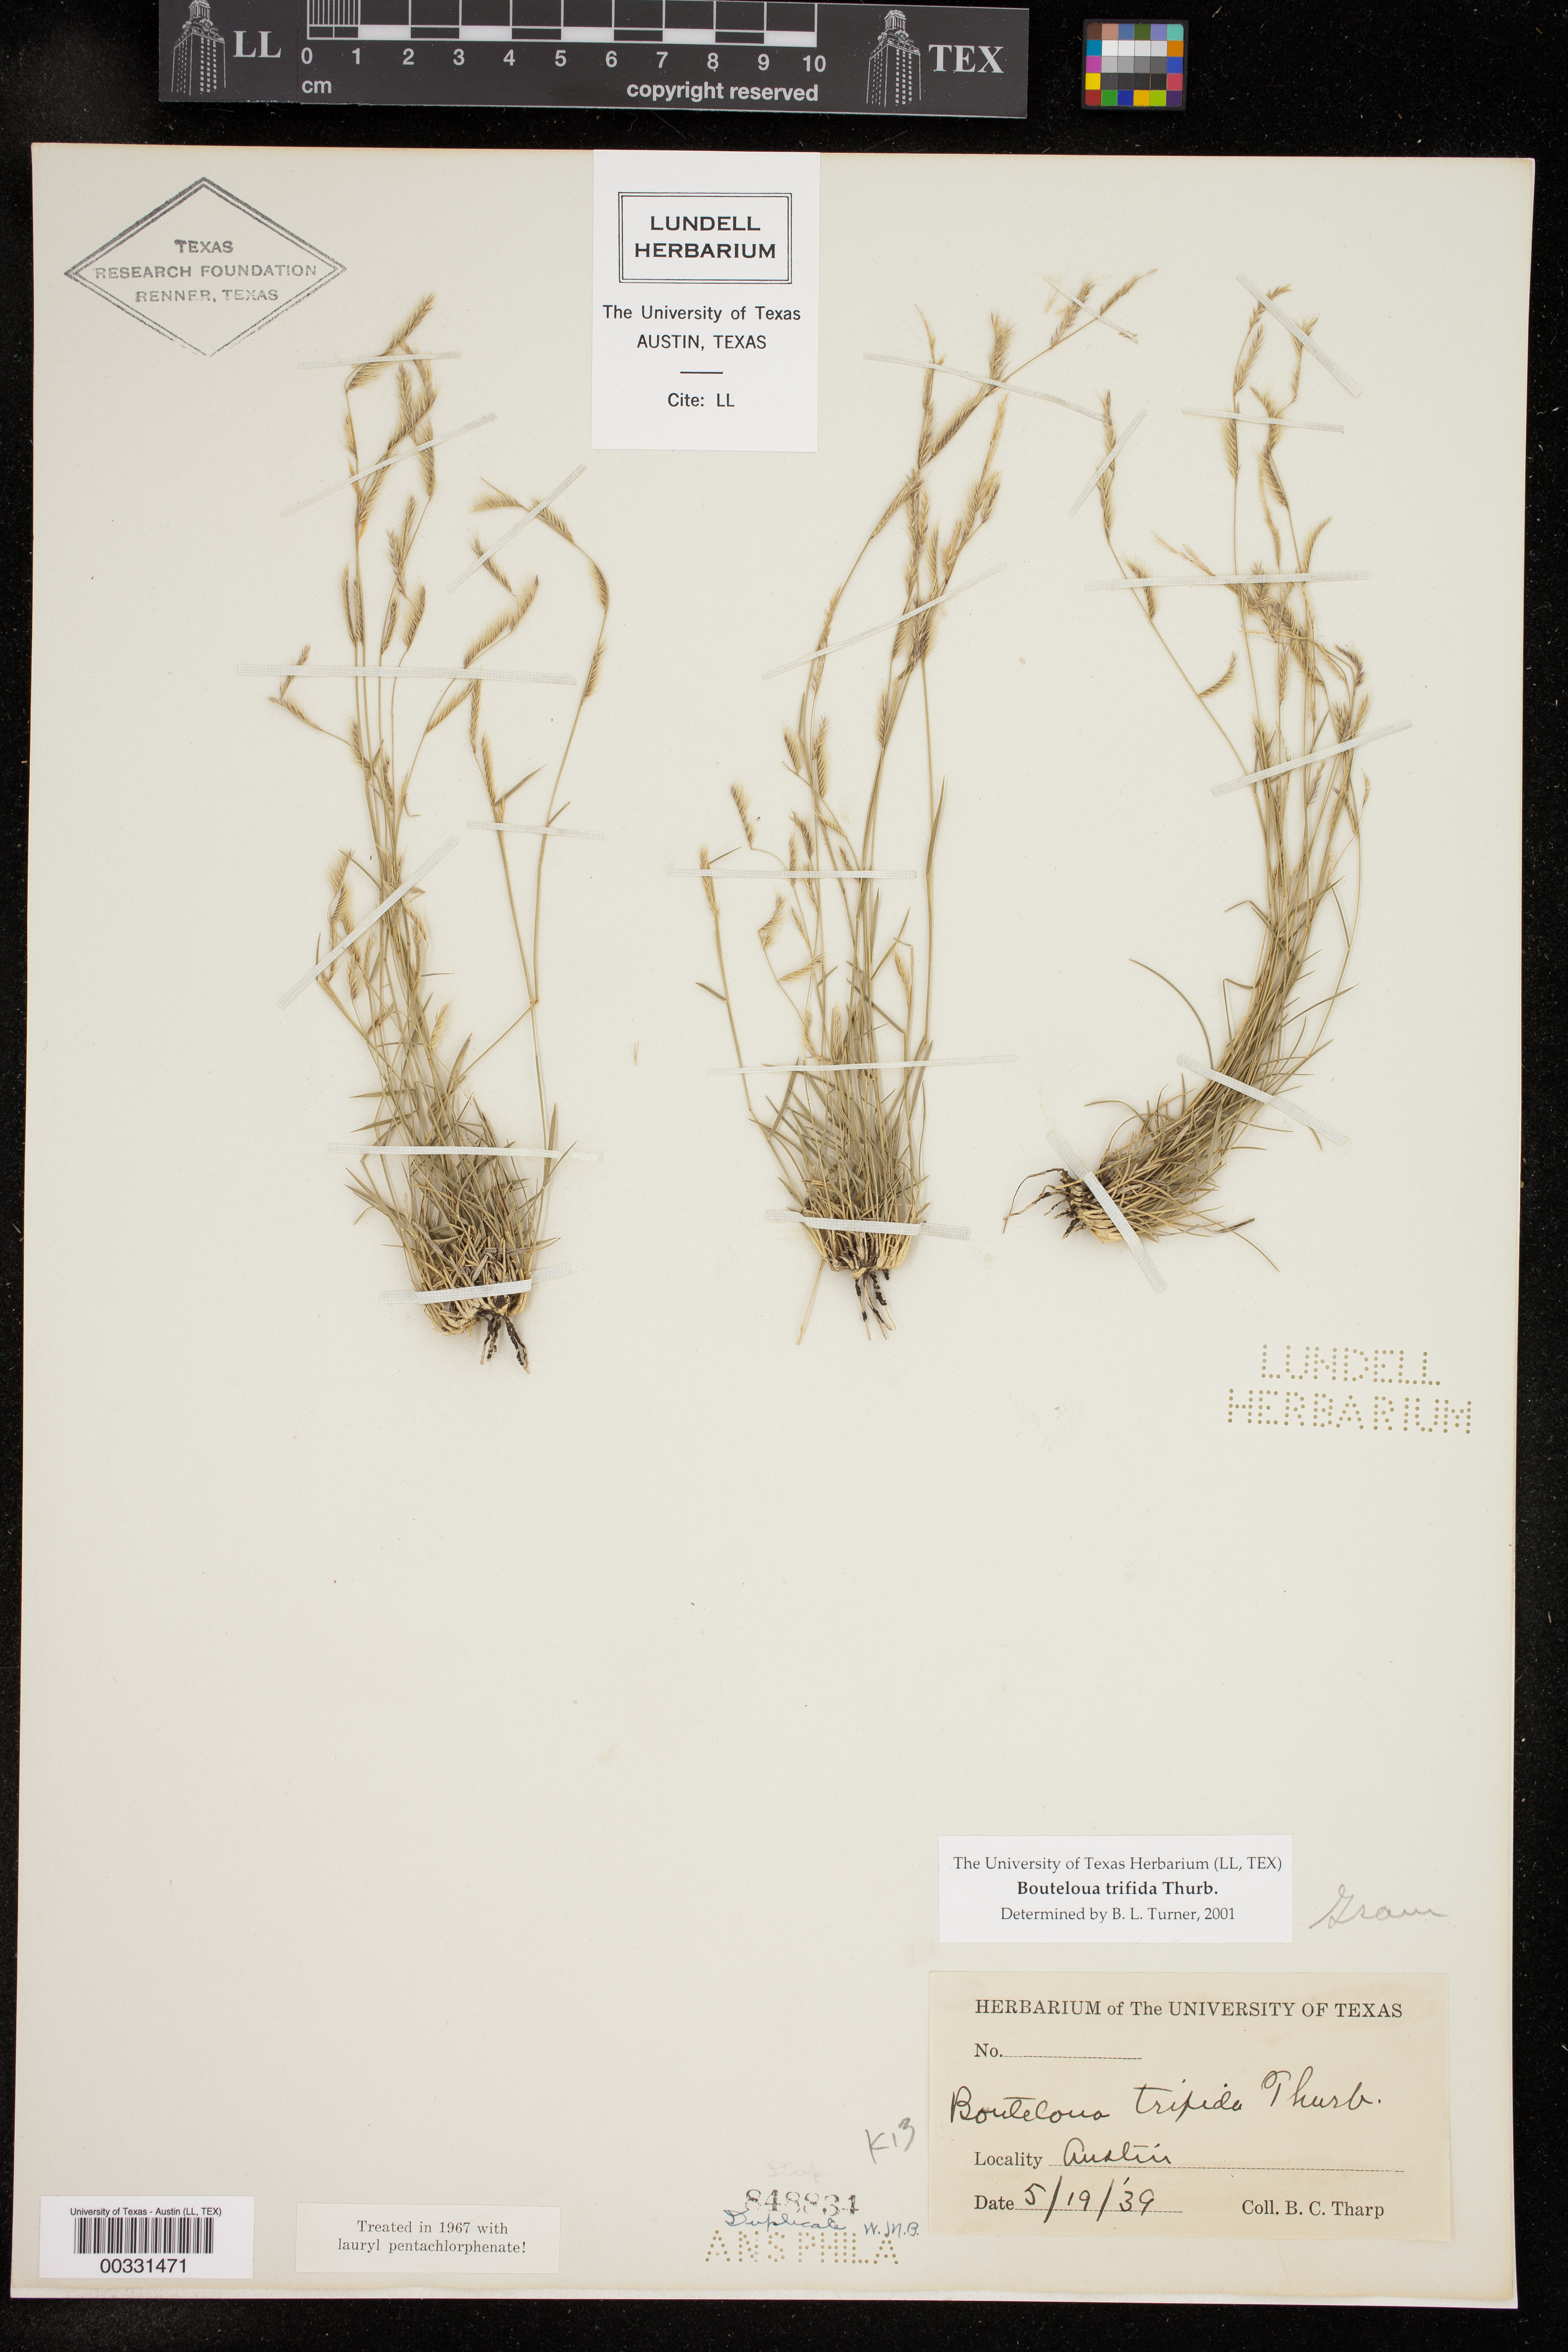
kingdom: Plantae
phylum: Tracheophyta
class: Liliopsida
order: Poales
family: Poaceae
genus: Bouteloua
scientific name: Bouteloua trifida
